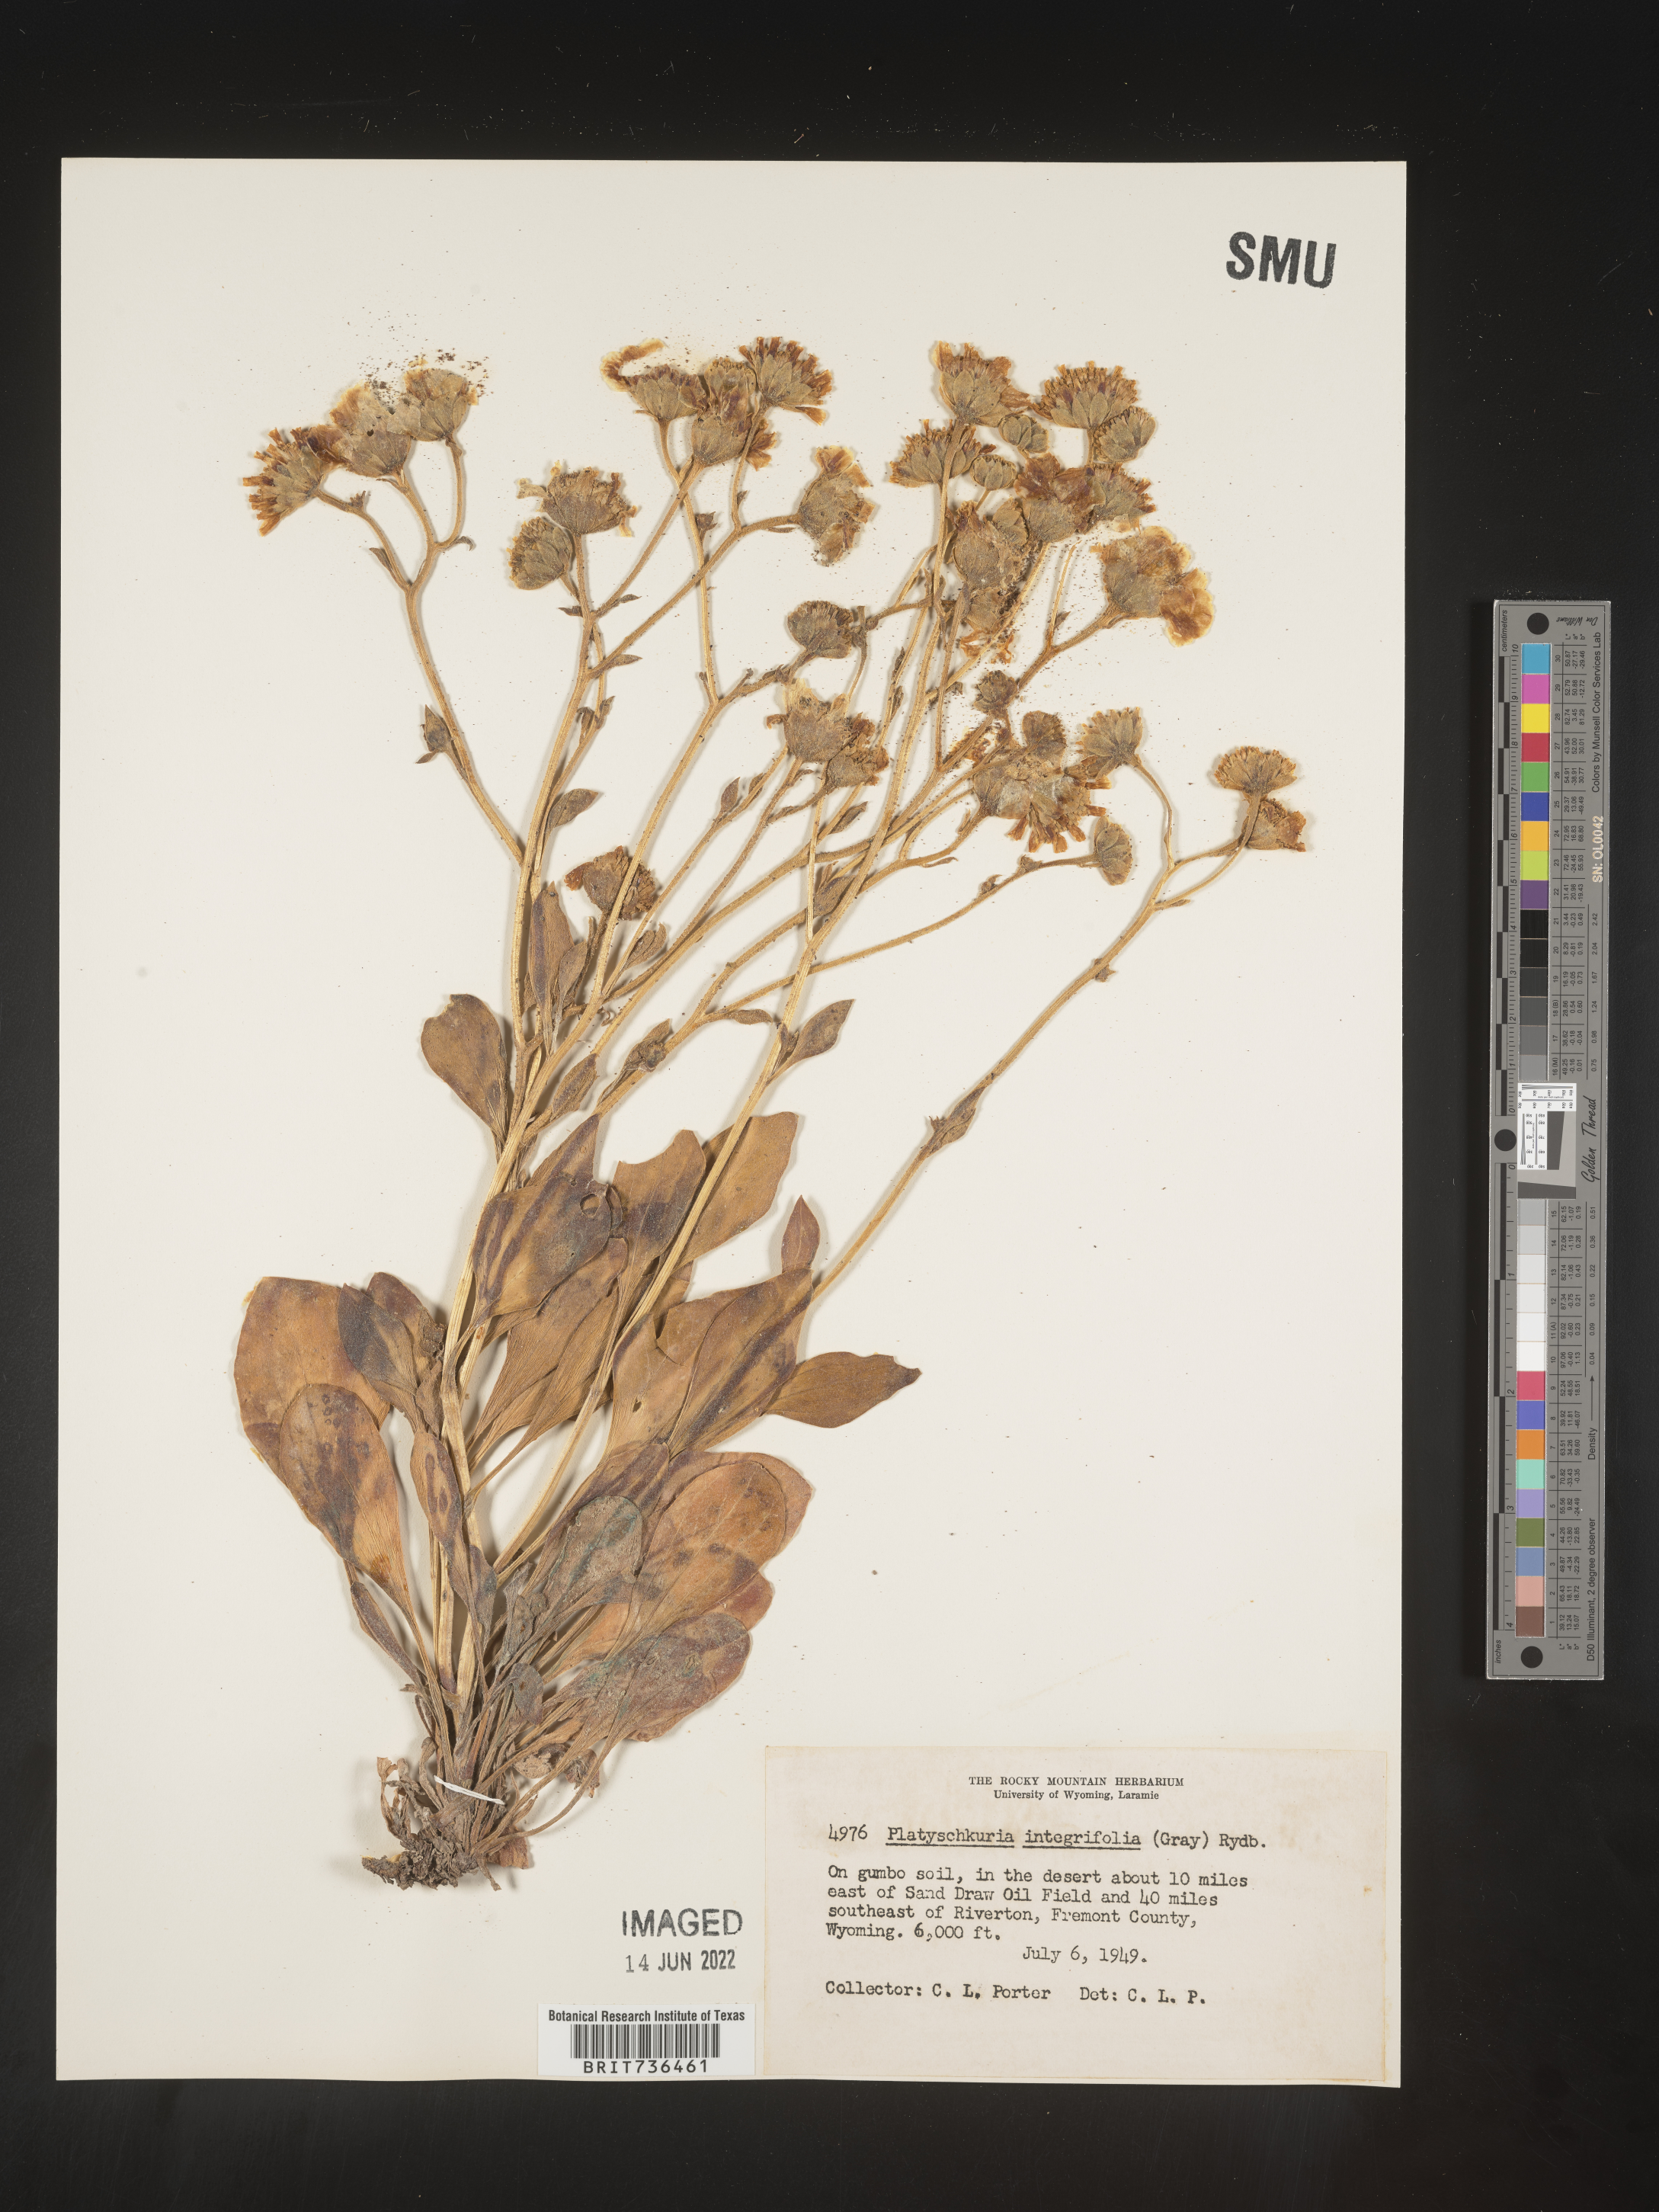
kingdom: Plantae
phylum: Tracheophyta
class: Magnoliopsida
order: Asterales
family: Asteraceae
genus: Platyschkuhria
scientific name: Platyschkuhria
